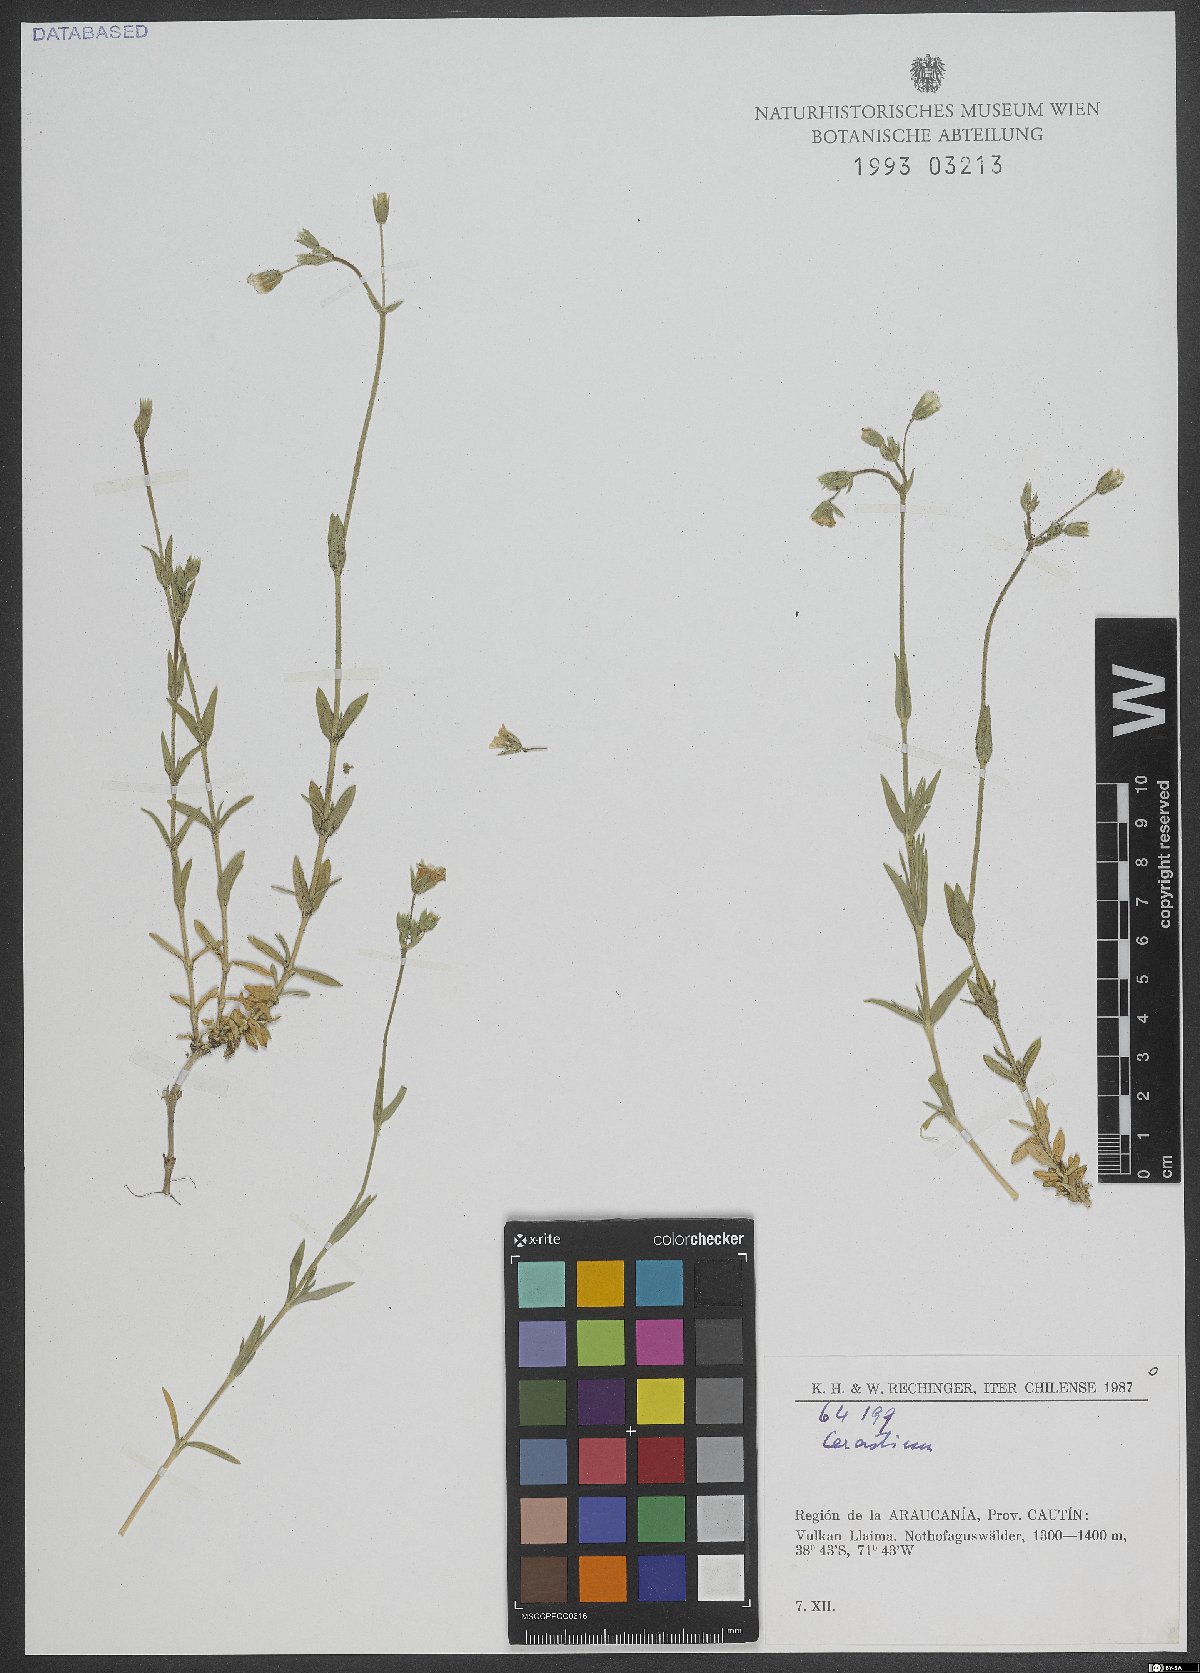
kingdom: Plantae
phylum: Tracheophyta
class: Magnoliopsida
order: Caryophyllales
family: Caryophyllaceae
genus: Cerastium
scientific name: Cerastium
